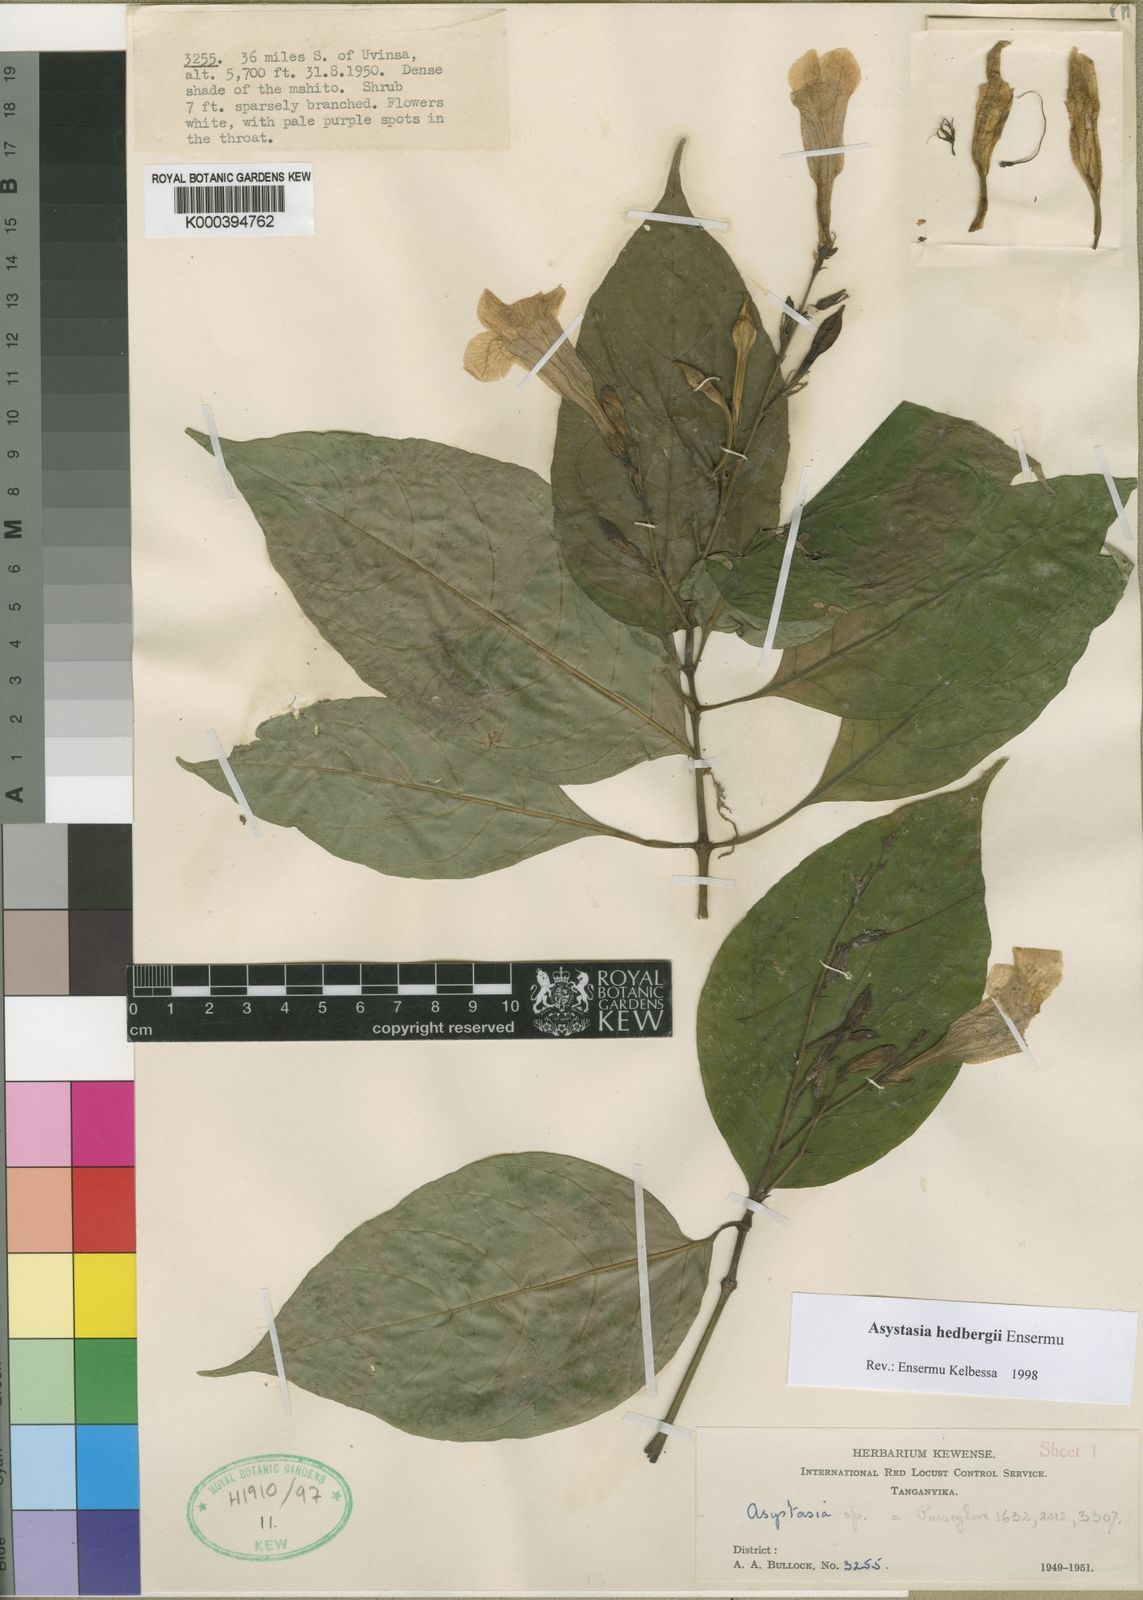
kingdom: Plantae
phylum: Tracheophyta
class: Magnoliopsida
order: Lamiales
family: Acanthaceae
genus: Asystasia
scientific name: Asystasia hedbergii
